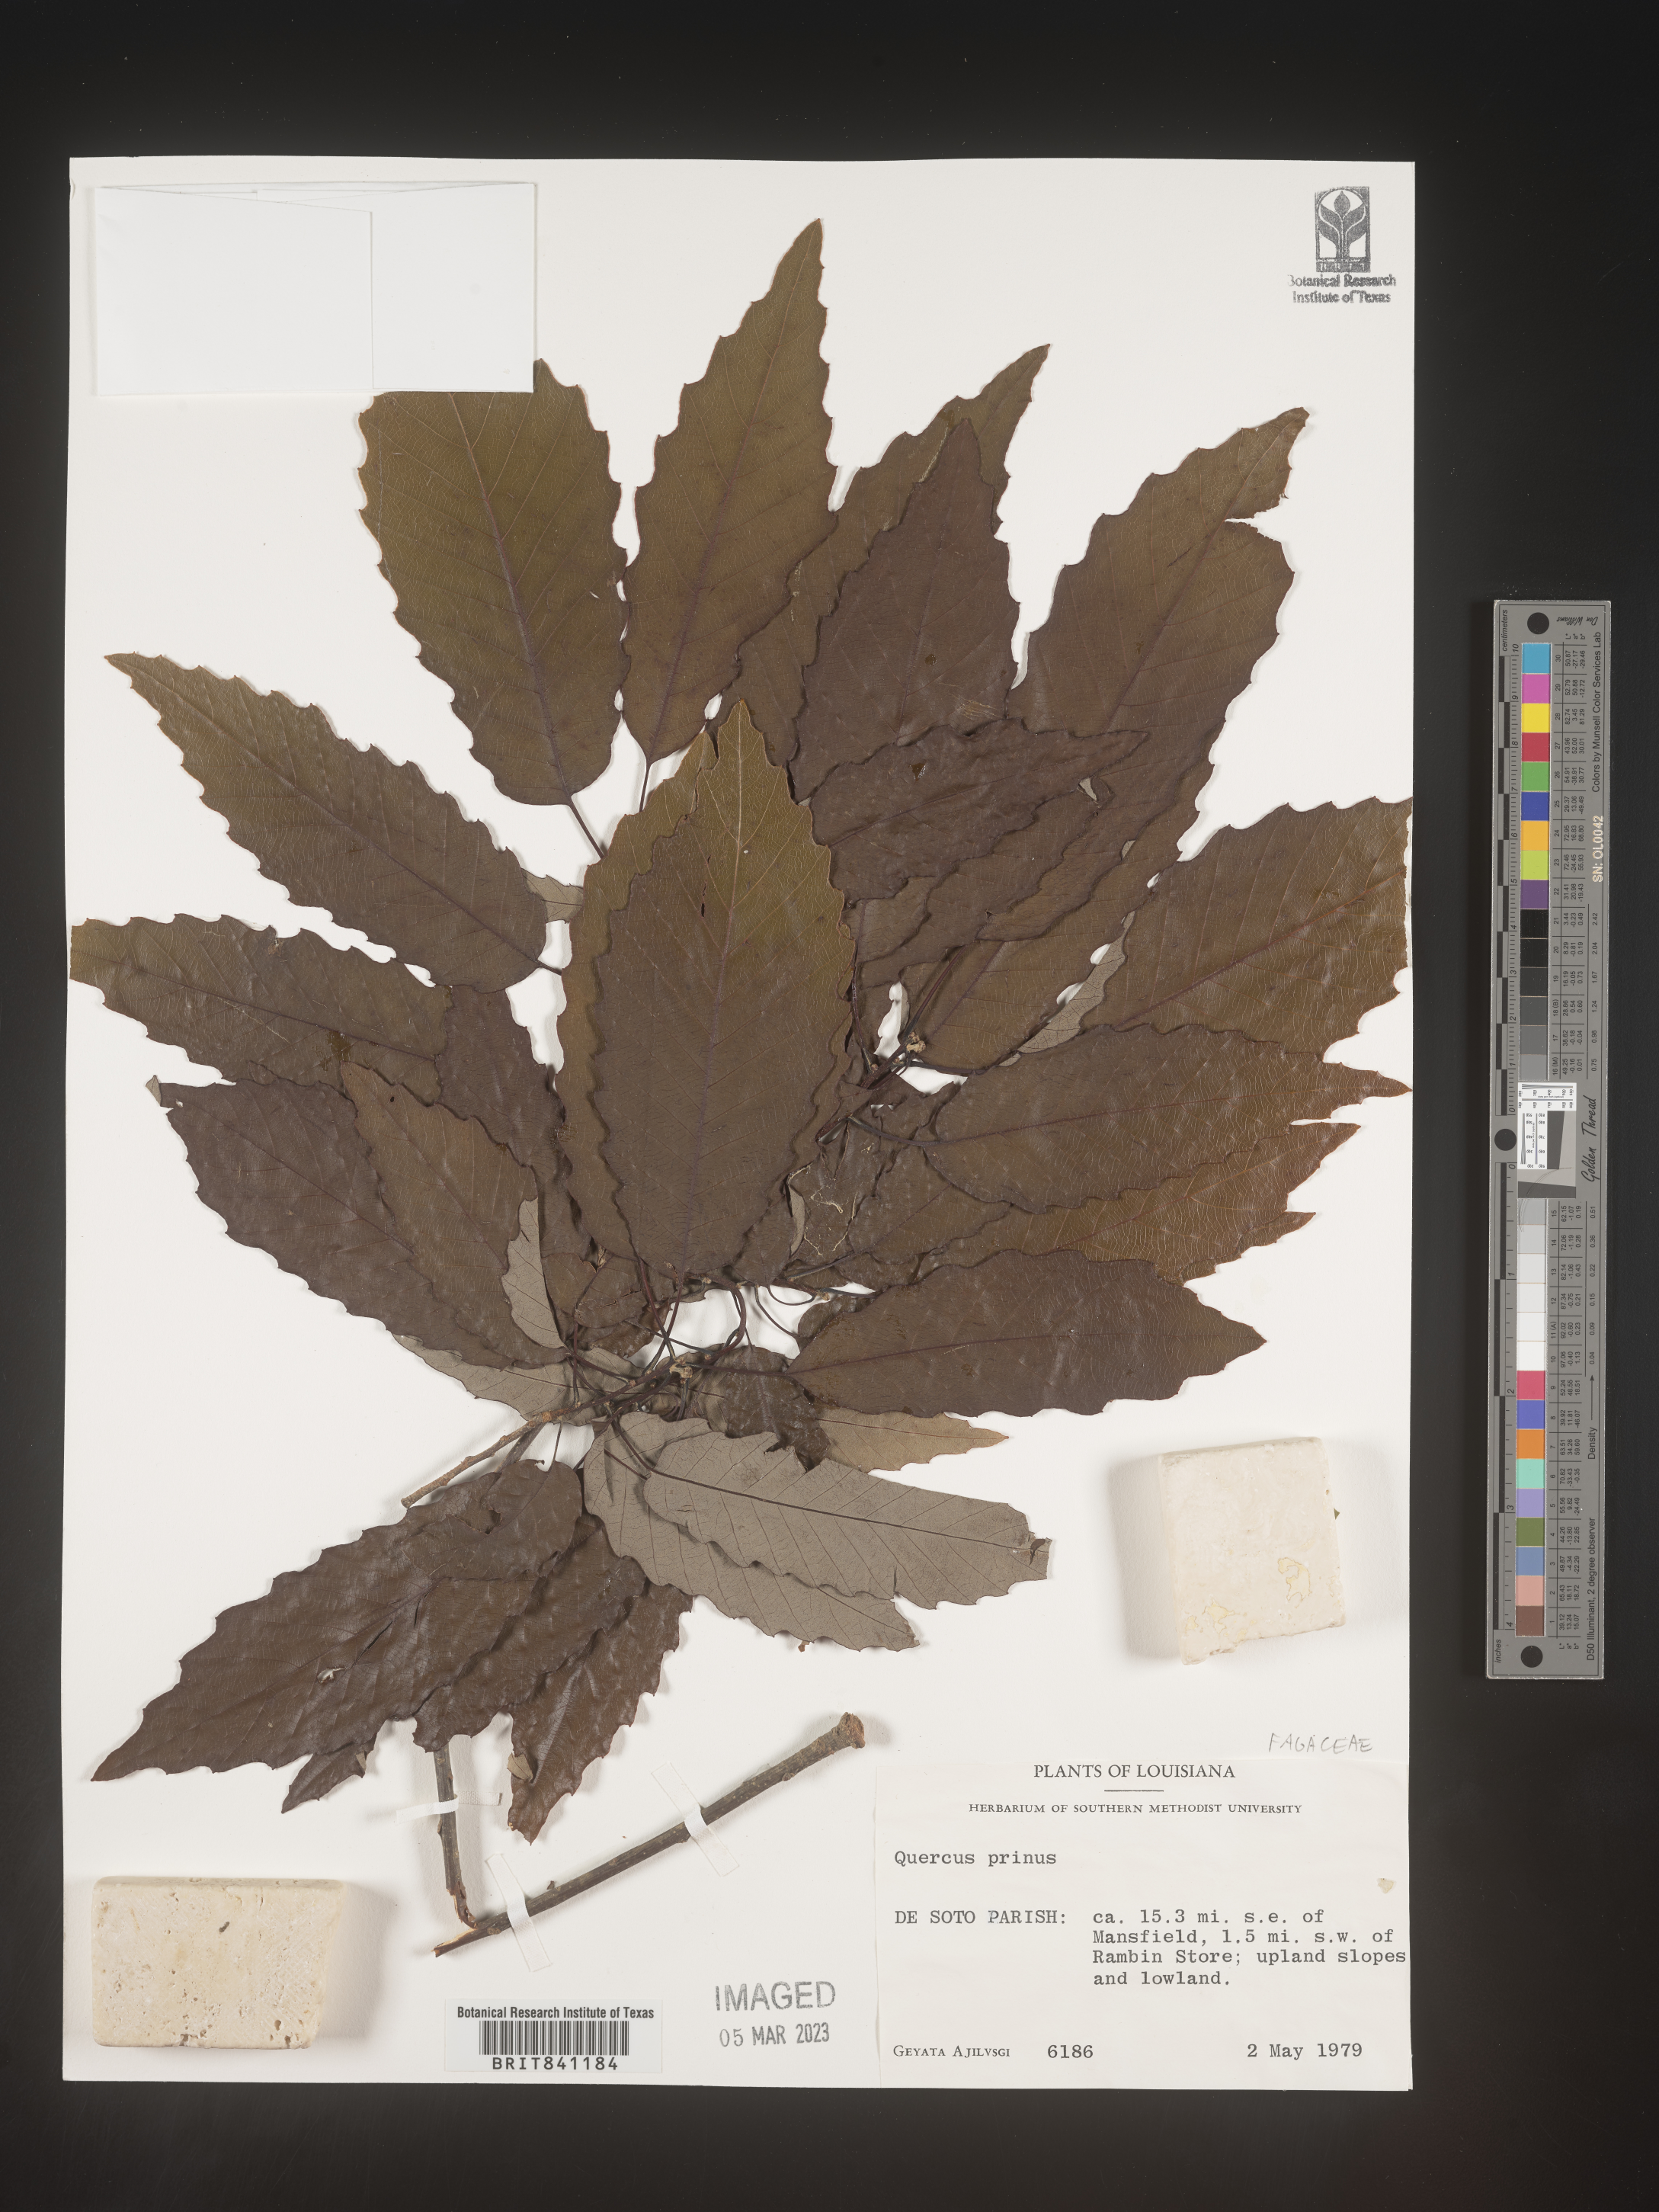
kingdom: Plantae
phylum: Tracheophyta
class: Magnoliopsida
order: Fagales
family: Fagaceae
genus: Quercus
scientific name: Quercus michauxii
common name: Swamp chestnut oak
